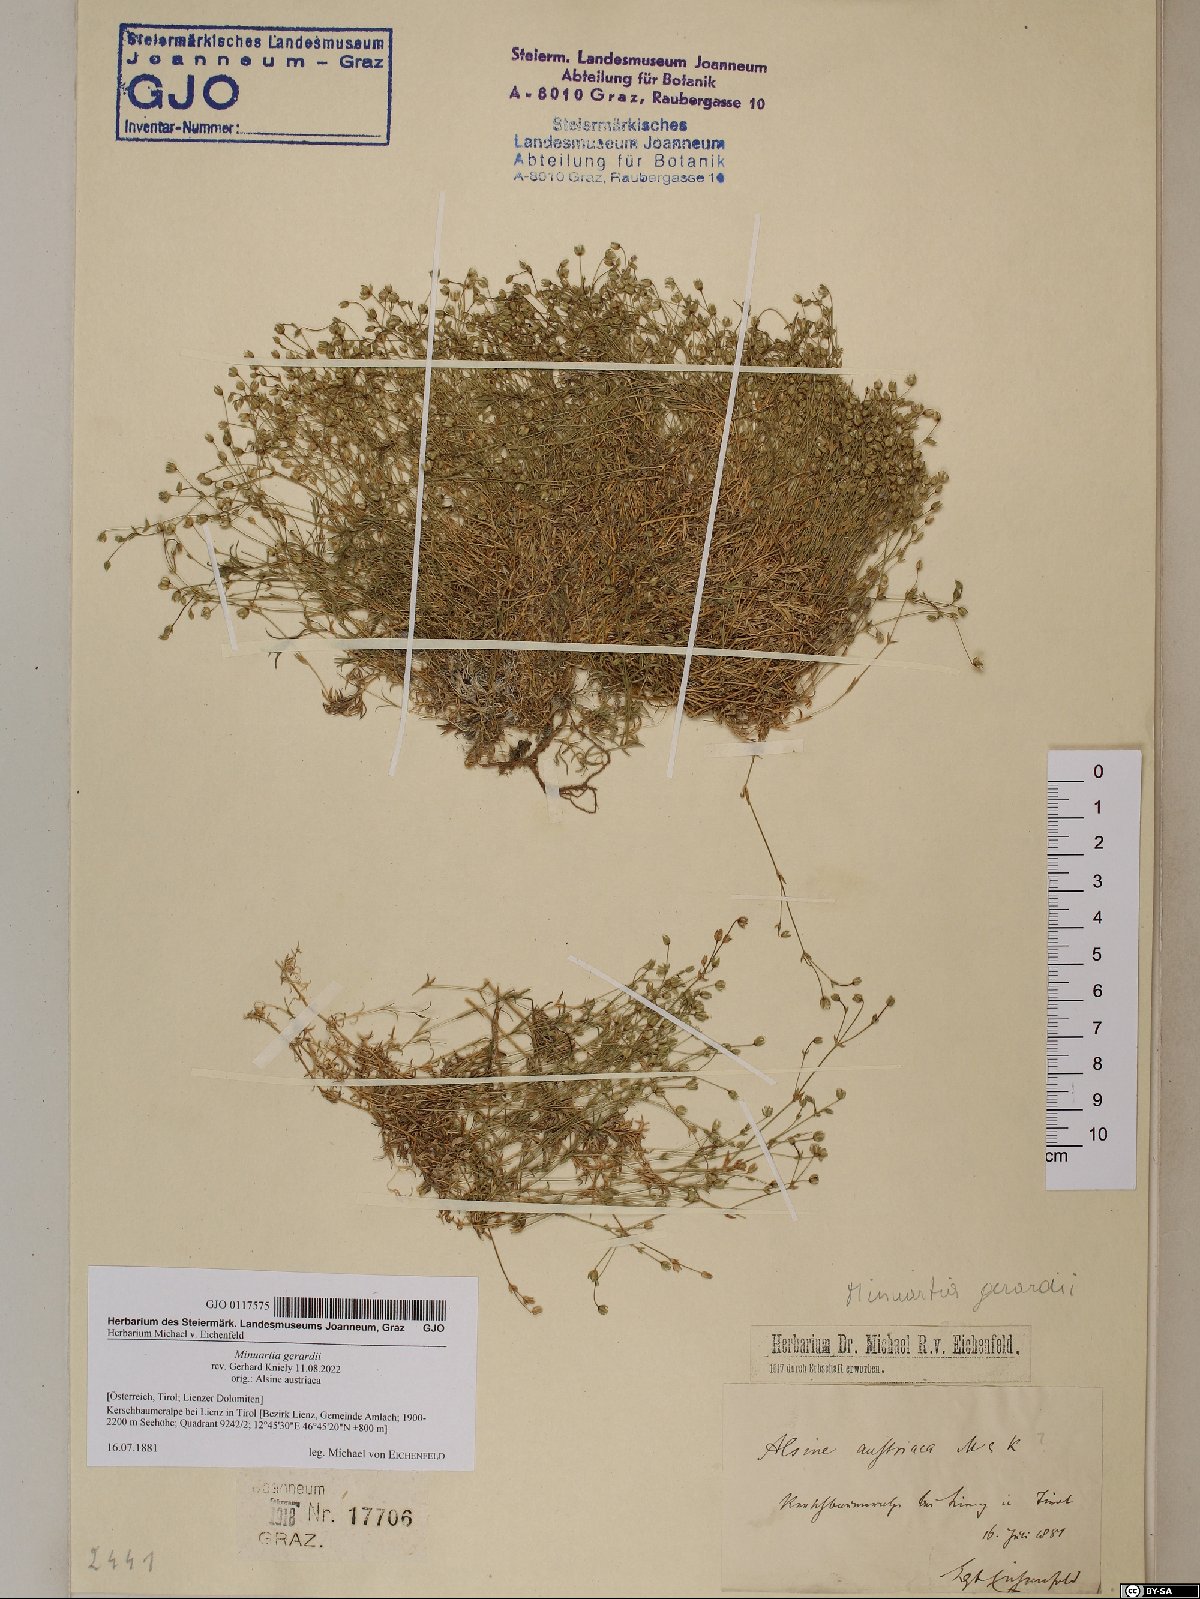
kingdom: Plantae
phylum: Tracheophyta
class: Magnoliopsida
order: Caryophyllales
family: Caryophyllaceae
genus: Sabulina
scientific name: Sabulina verna
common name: Spring sandwort
